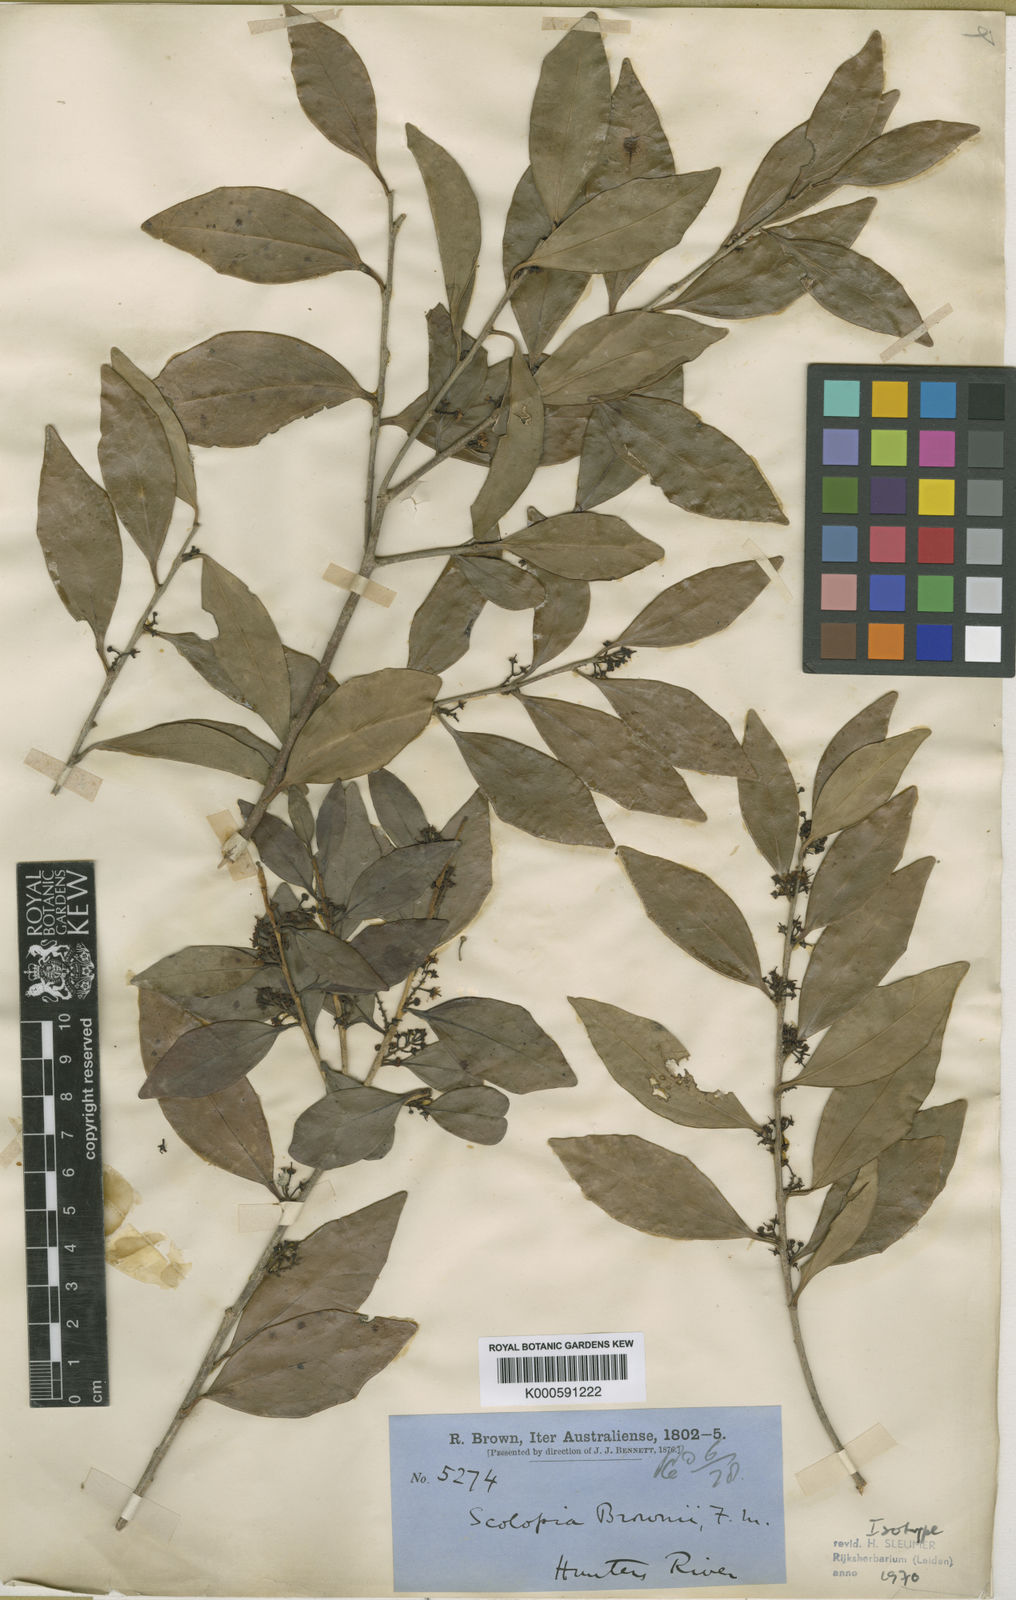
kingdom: Plantae
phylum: Tracheophyta
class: Magnoliopsida
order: Malpighiales
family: Salicaceae
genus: Scolopia
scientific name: Scolopia brownii
